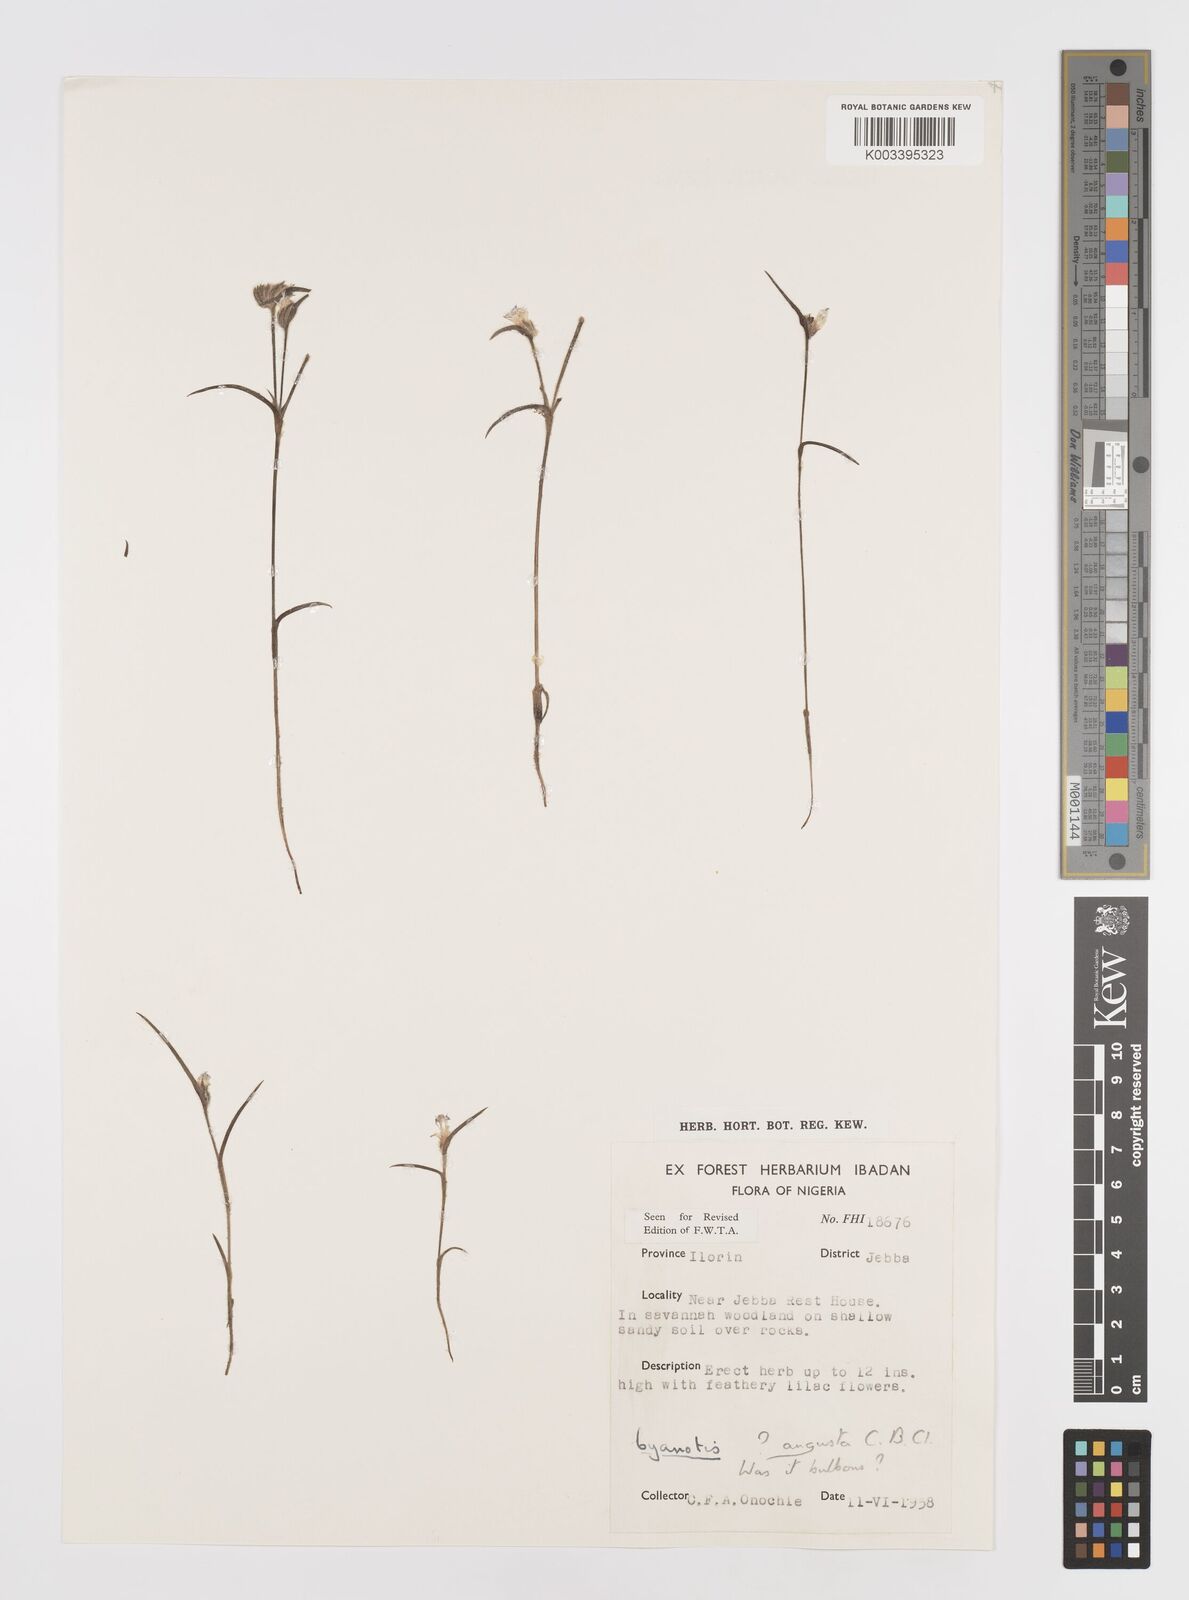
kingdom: Plantae
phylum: Tracheophyta
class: Liliopsida
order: Commelinales
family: Commelinaceae
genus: Cyanotis
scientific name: Cyanotis angusta
